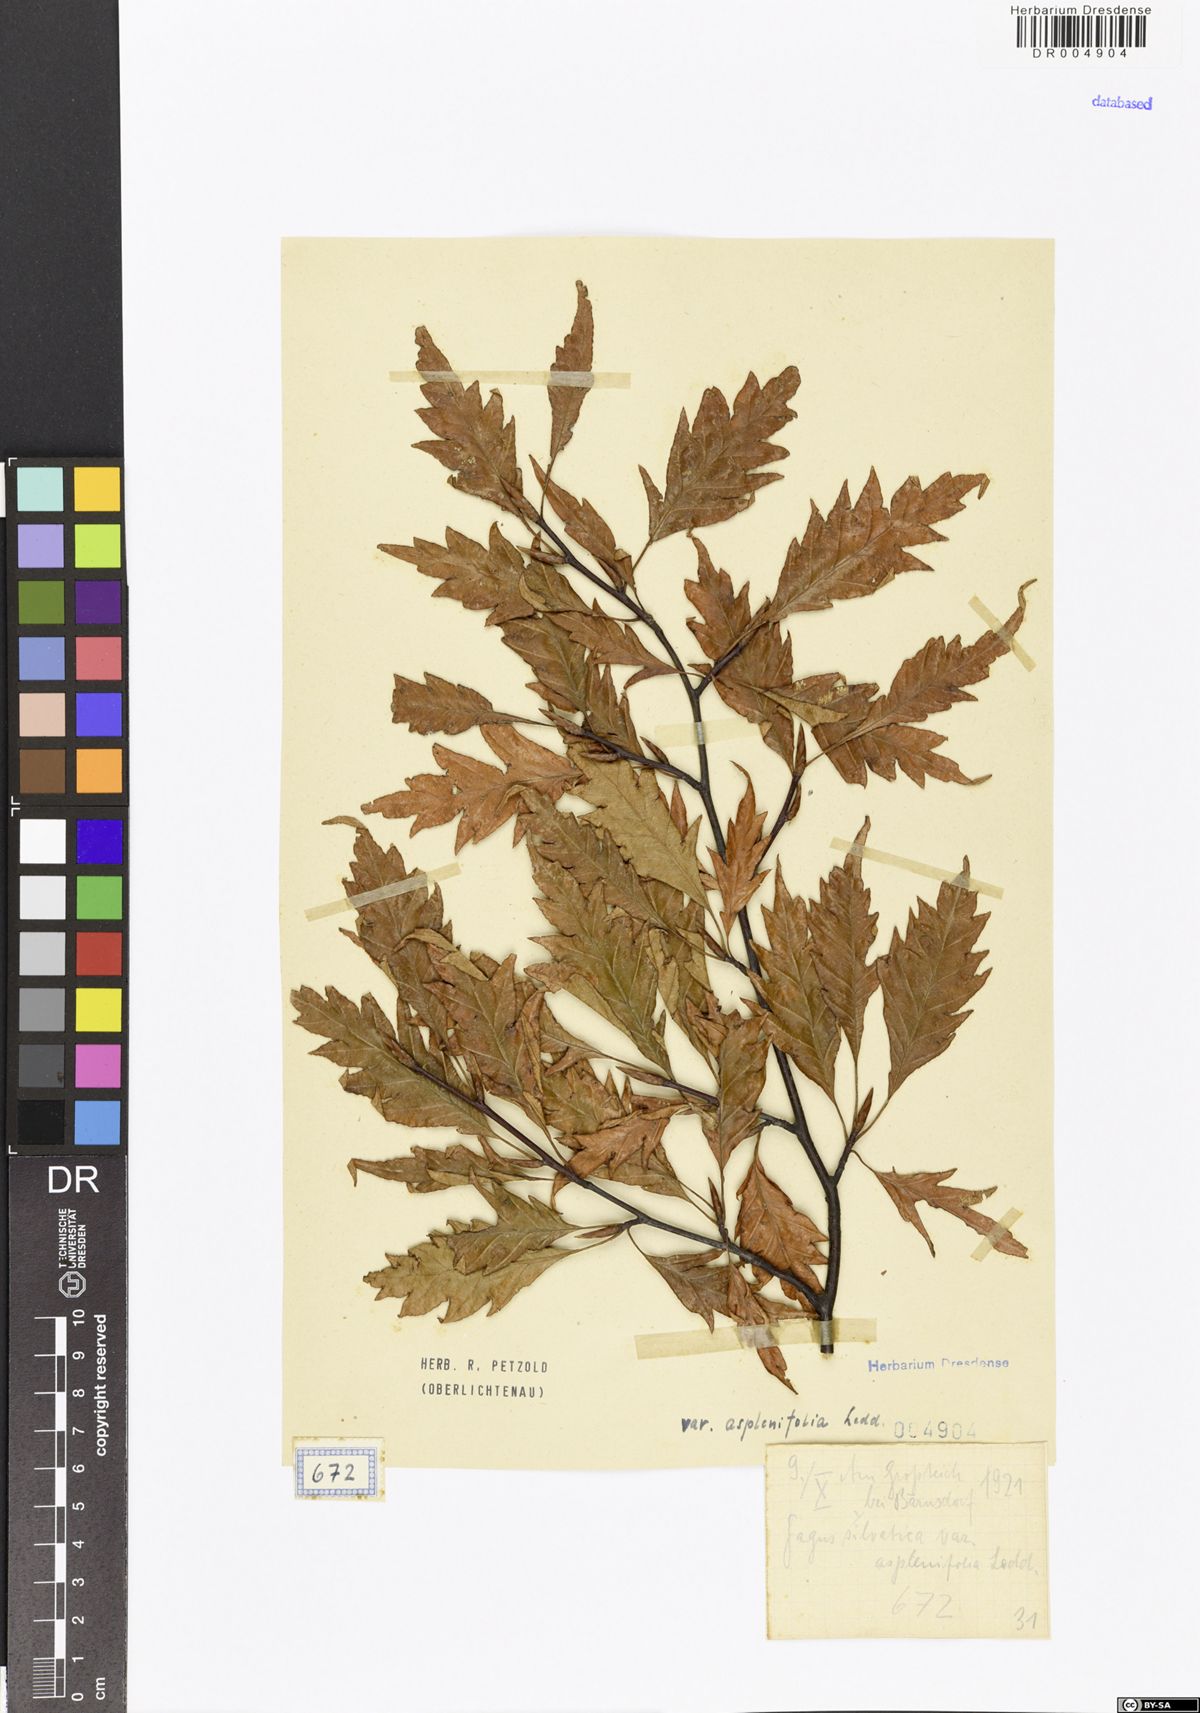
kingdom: Plantae
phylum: Tracheophyta
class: Magnoliopsida
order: Fagales
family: Fagaceae
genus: Fagus
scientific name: Fagus sylvatica
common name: Beech
